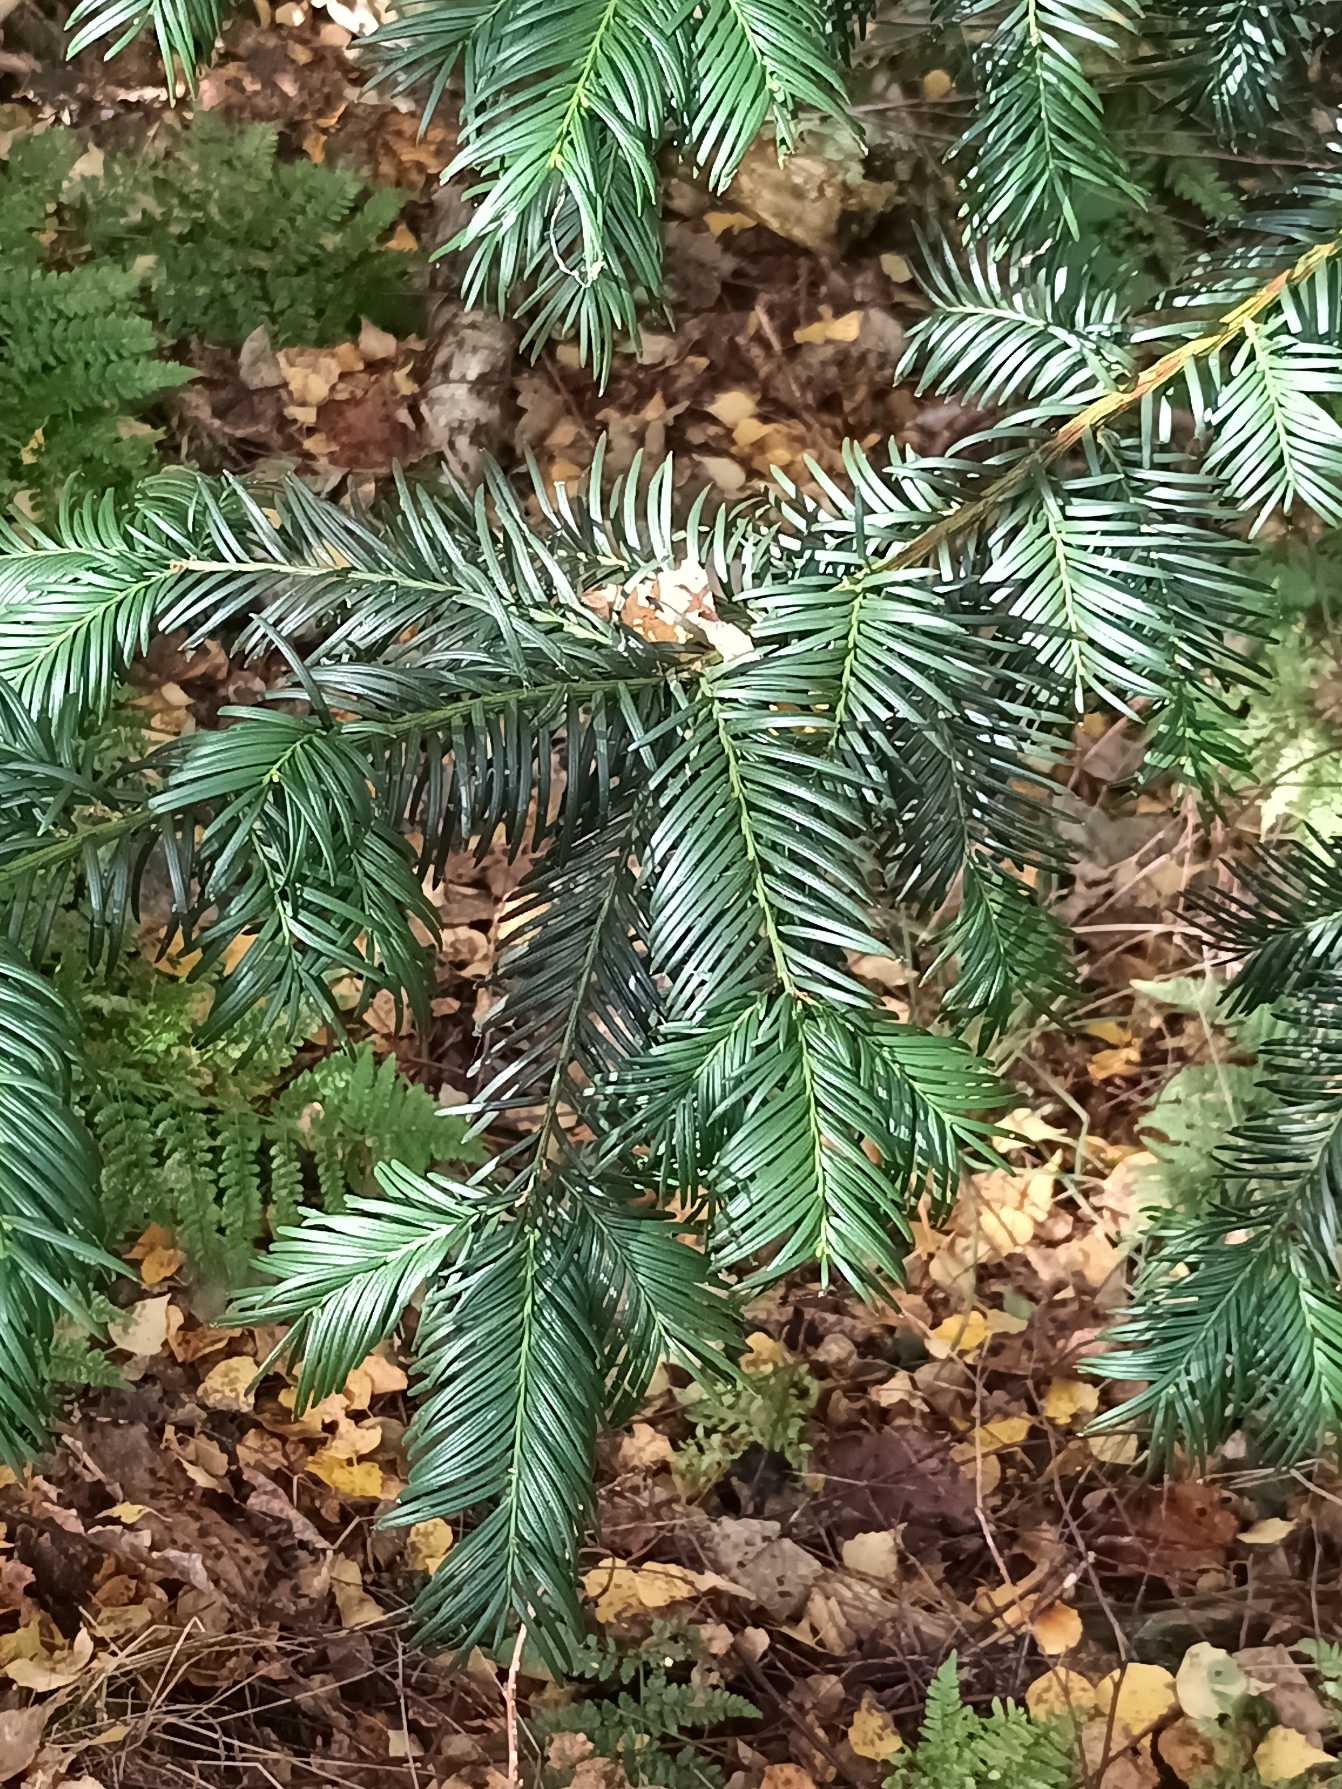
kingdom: Plantae
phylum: Tracheophyta
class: Pinopsida
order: Pinales
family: Taxaceae
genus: Taxus
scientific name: Taxus baccata
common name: Almindelig taks
